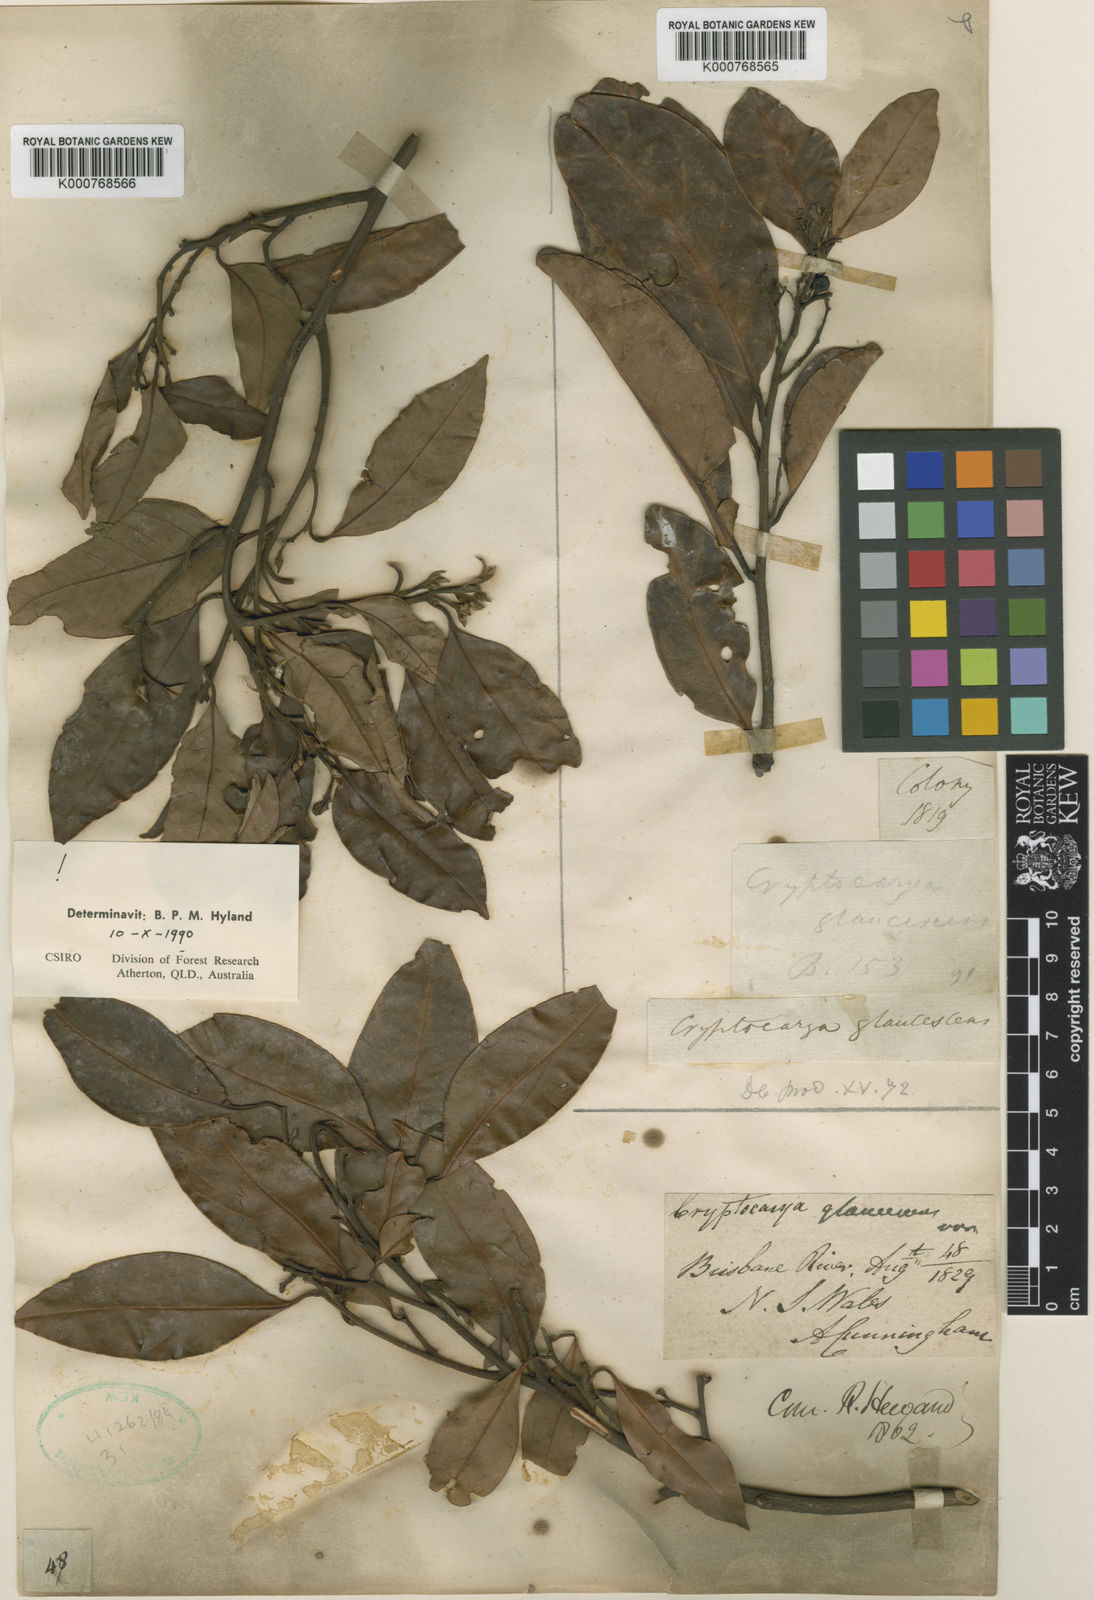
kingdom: Plantae
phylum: Tracheophyta
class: Magnoliopsida
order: Laurales
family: Lauraceae
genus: Cryptocarya
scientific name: Cryptocarya glaucescens
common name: Bolly-laurel
